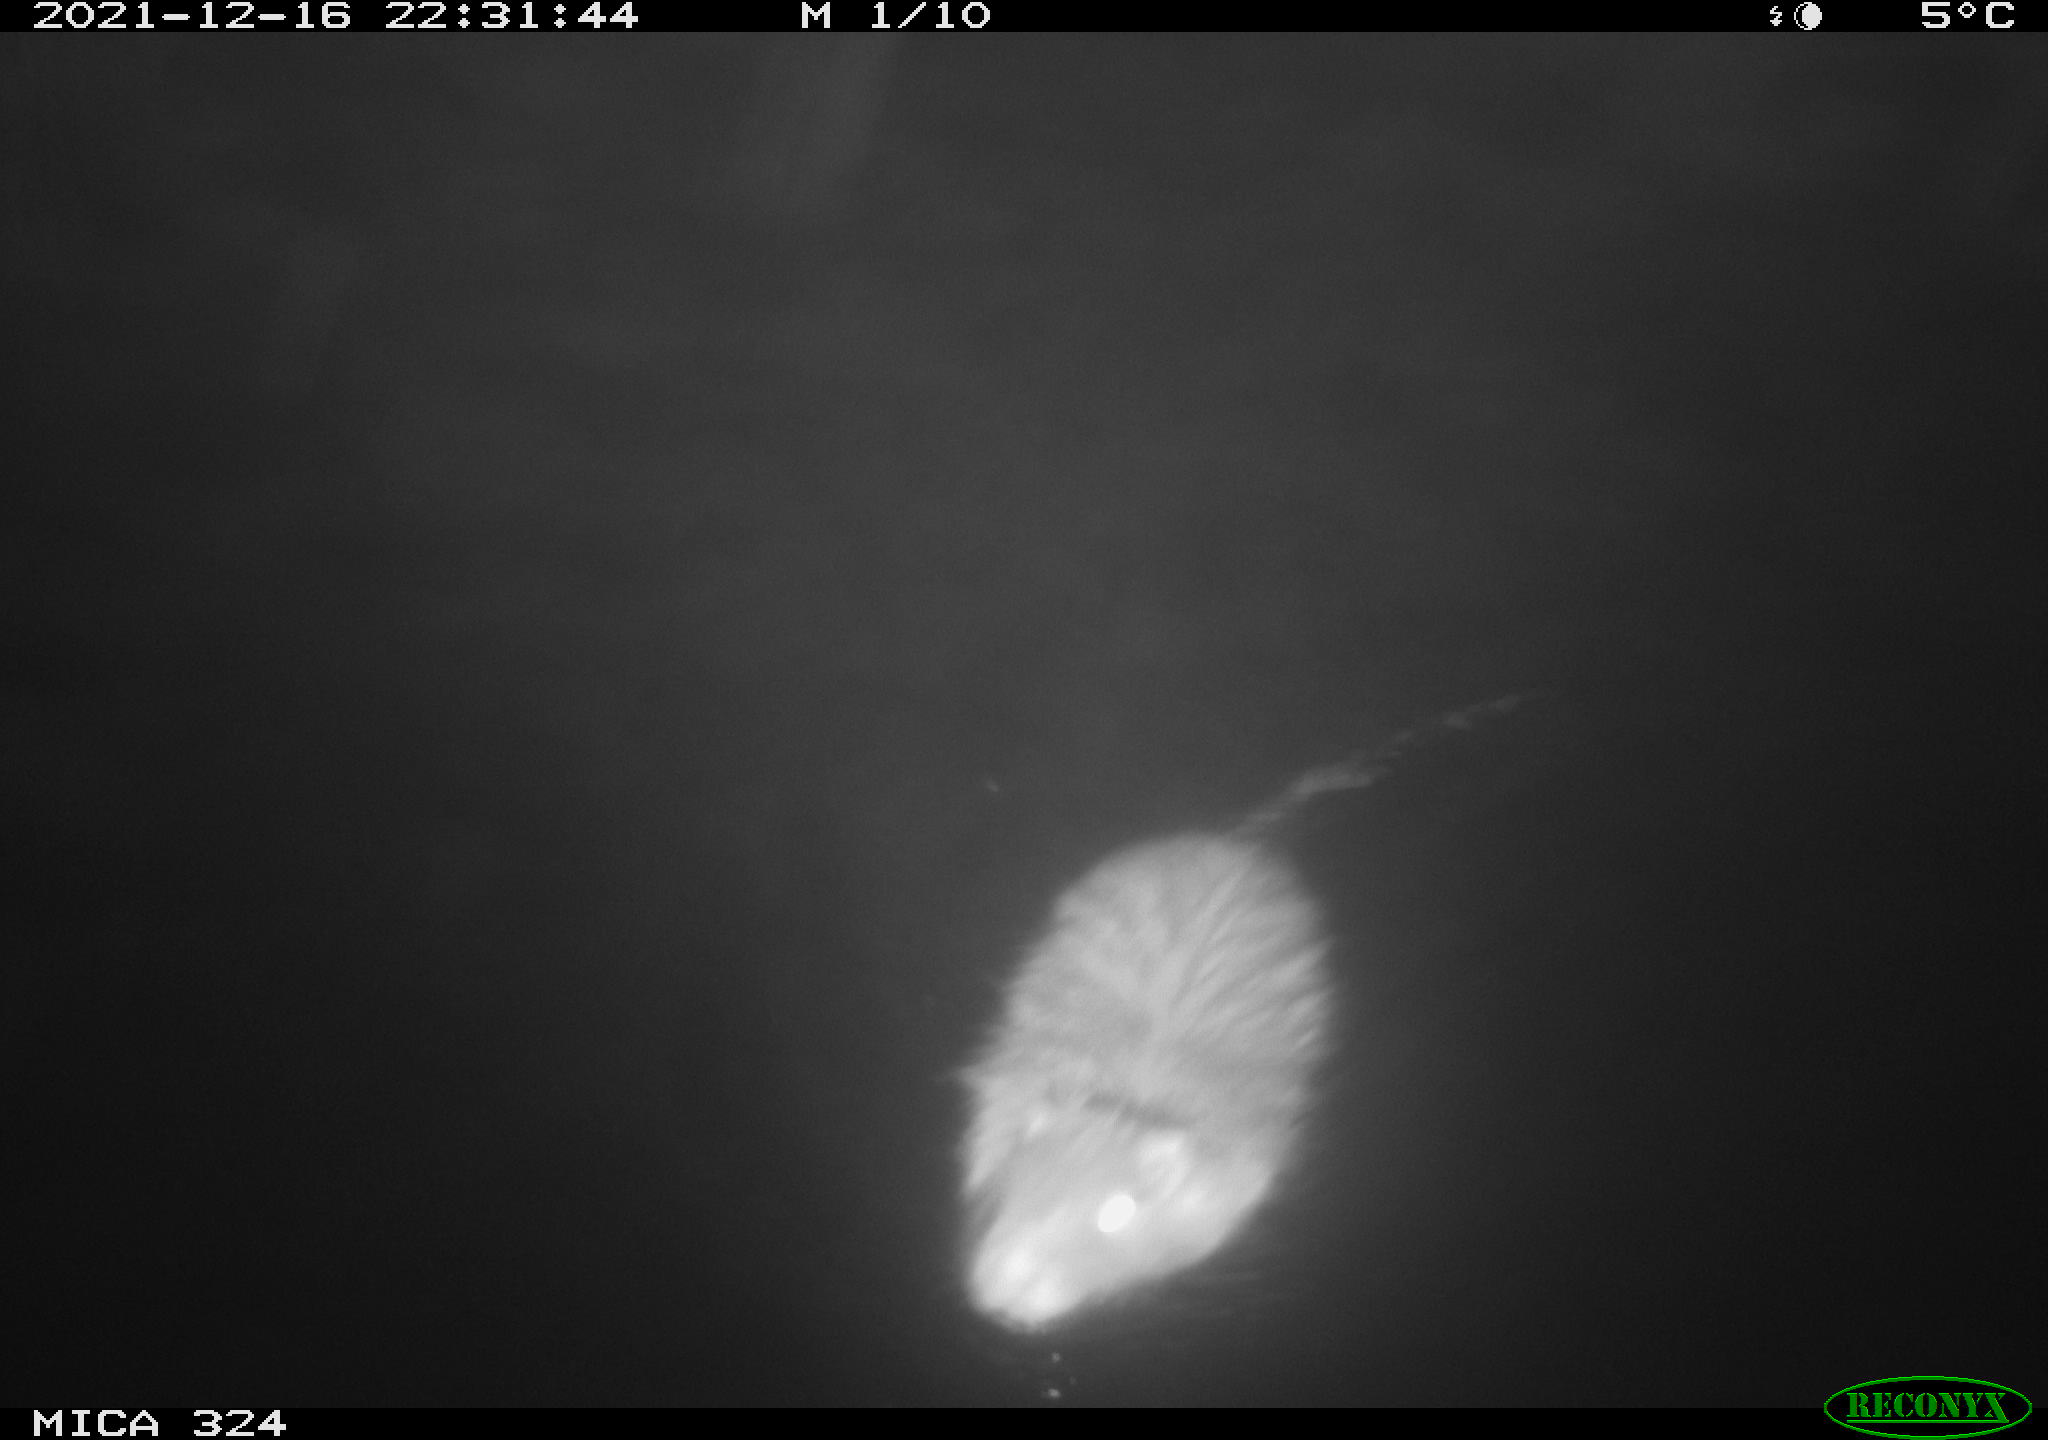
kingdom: Animalia
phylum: Chordata
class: Mammalia
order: Rodentia
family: Myocastoridae
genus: Myocastor
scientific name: Myocastor coypus
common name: Coypu
